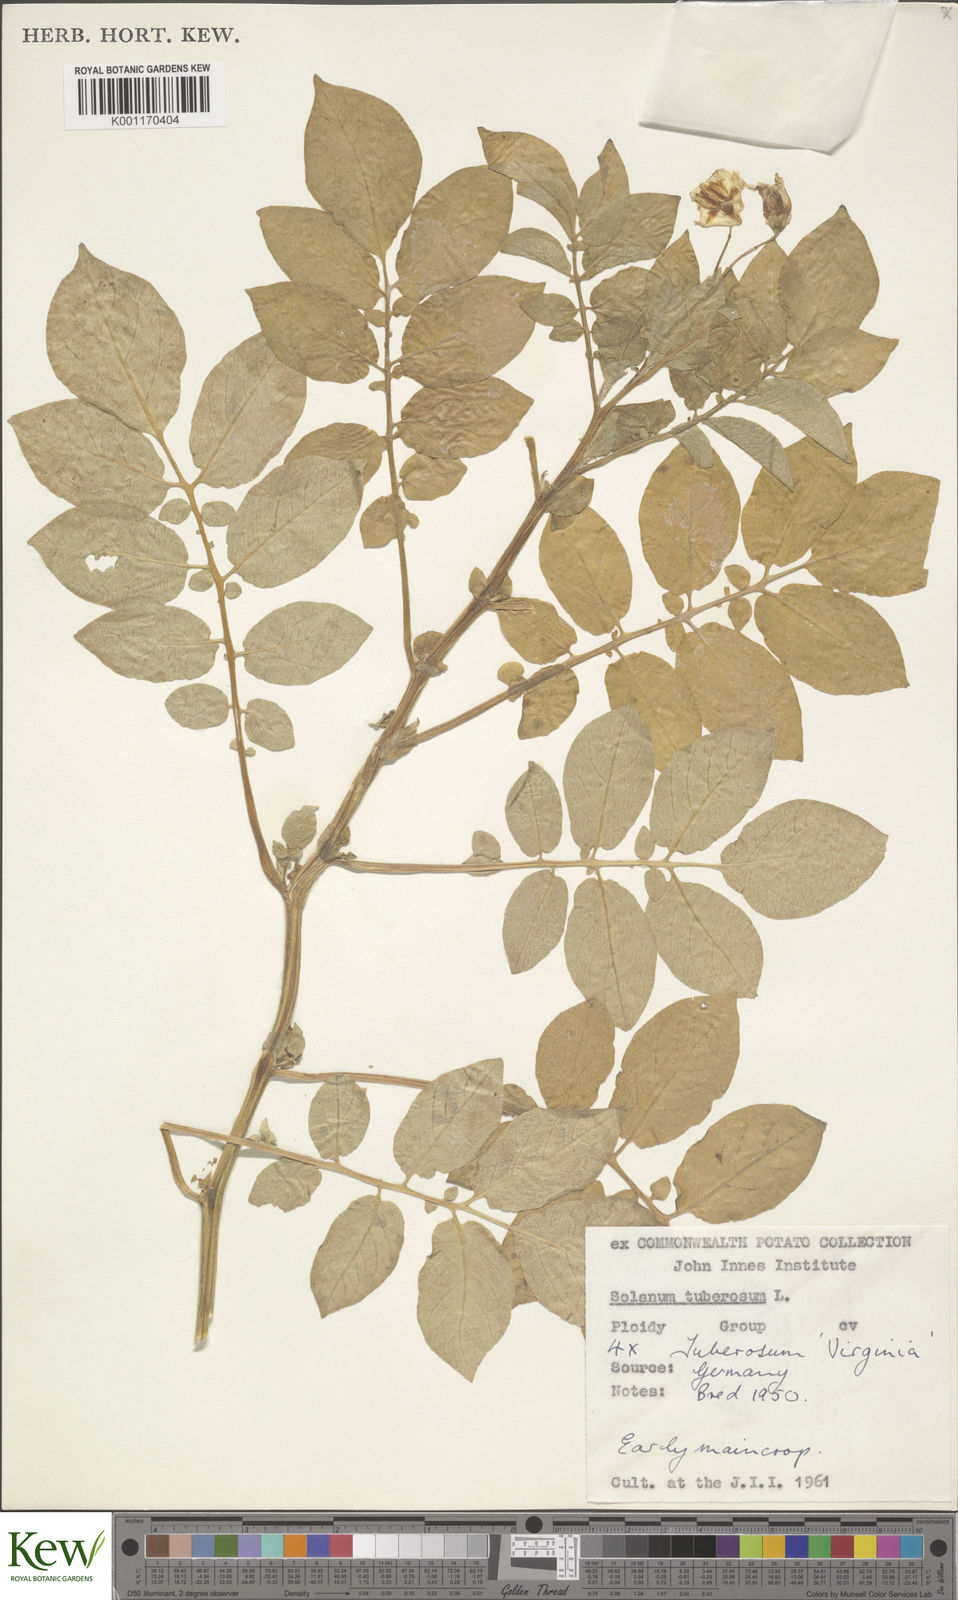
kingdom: Plantae
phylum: Tracheophyta
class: Magnoliopsida
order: Solanales
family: Solanaceae
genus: Solanum
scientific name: Solanum tuberosum
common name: Potato
